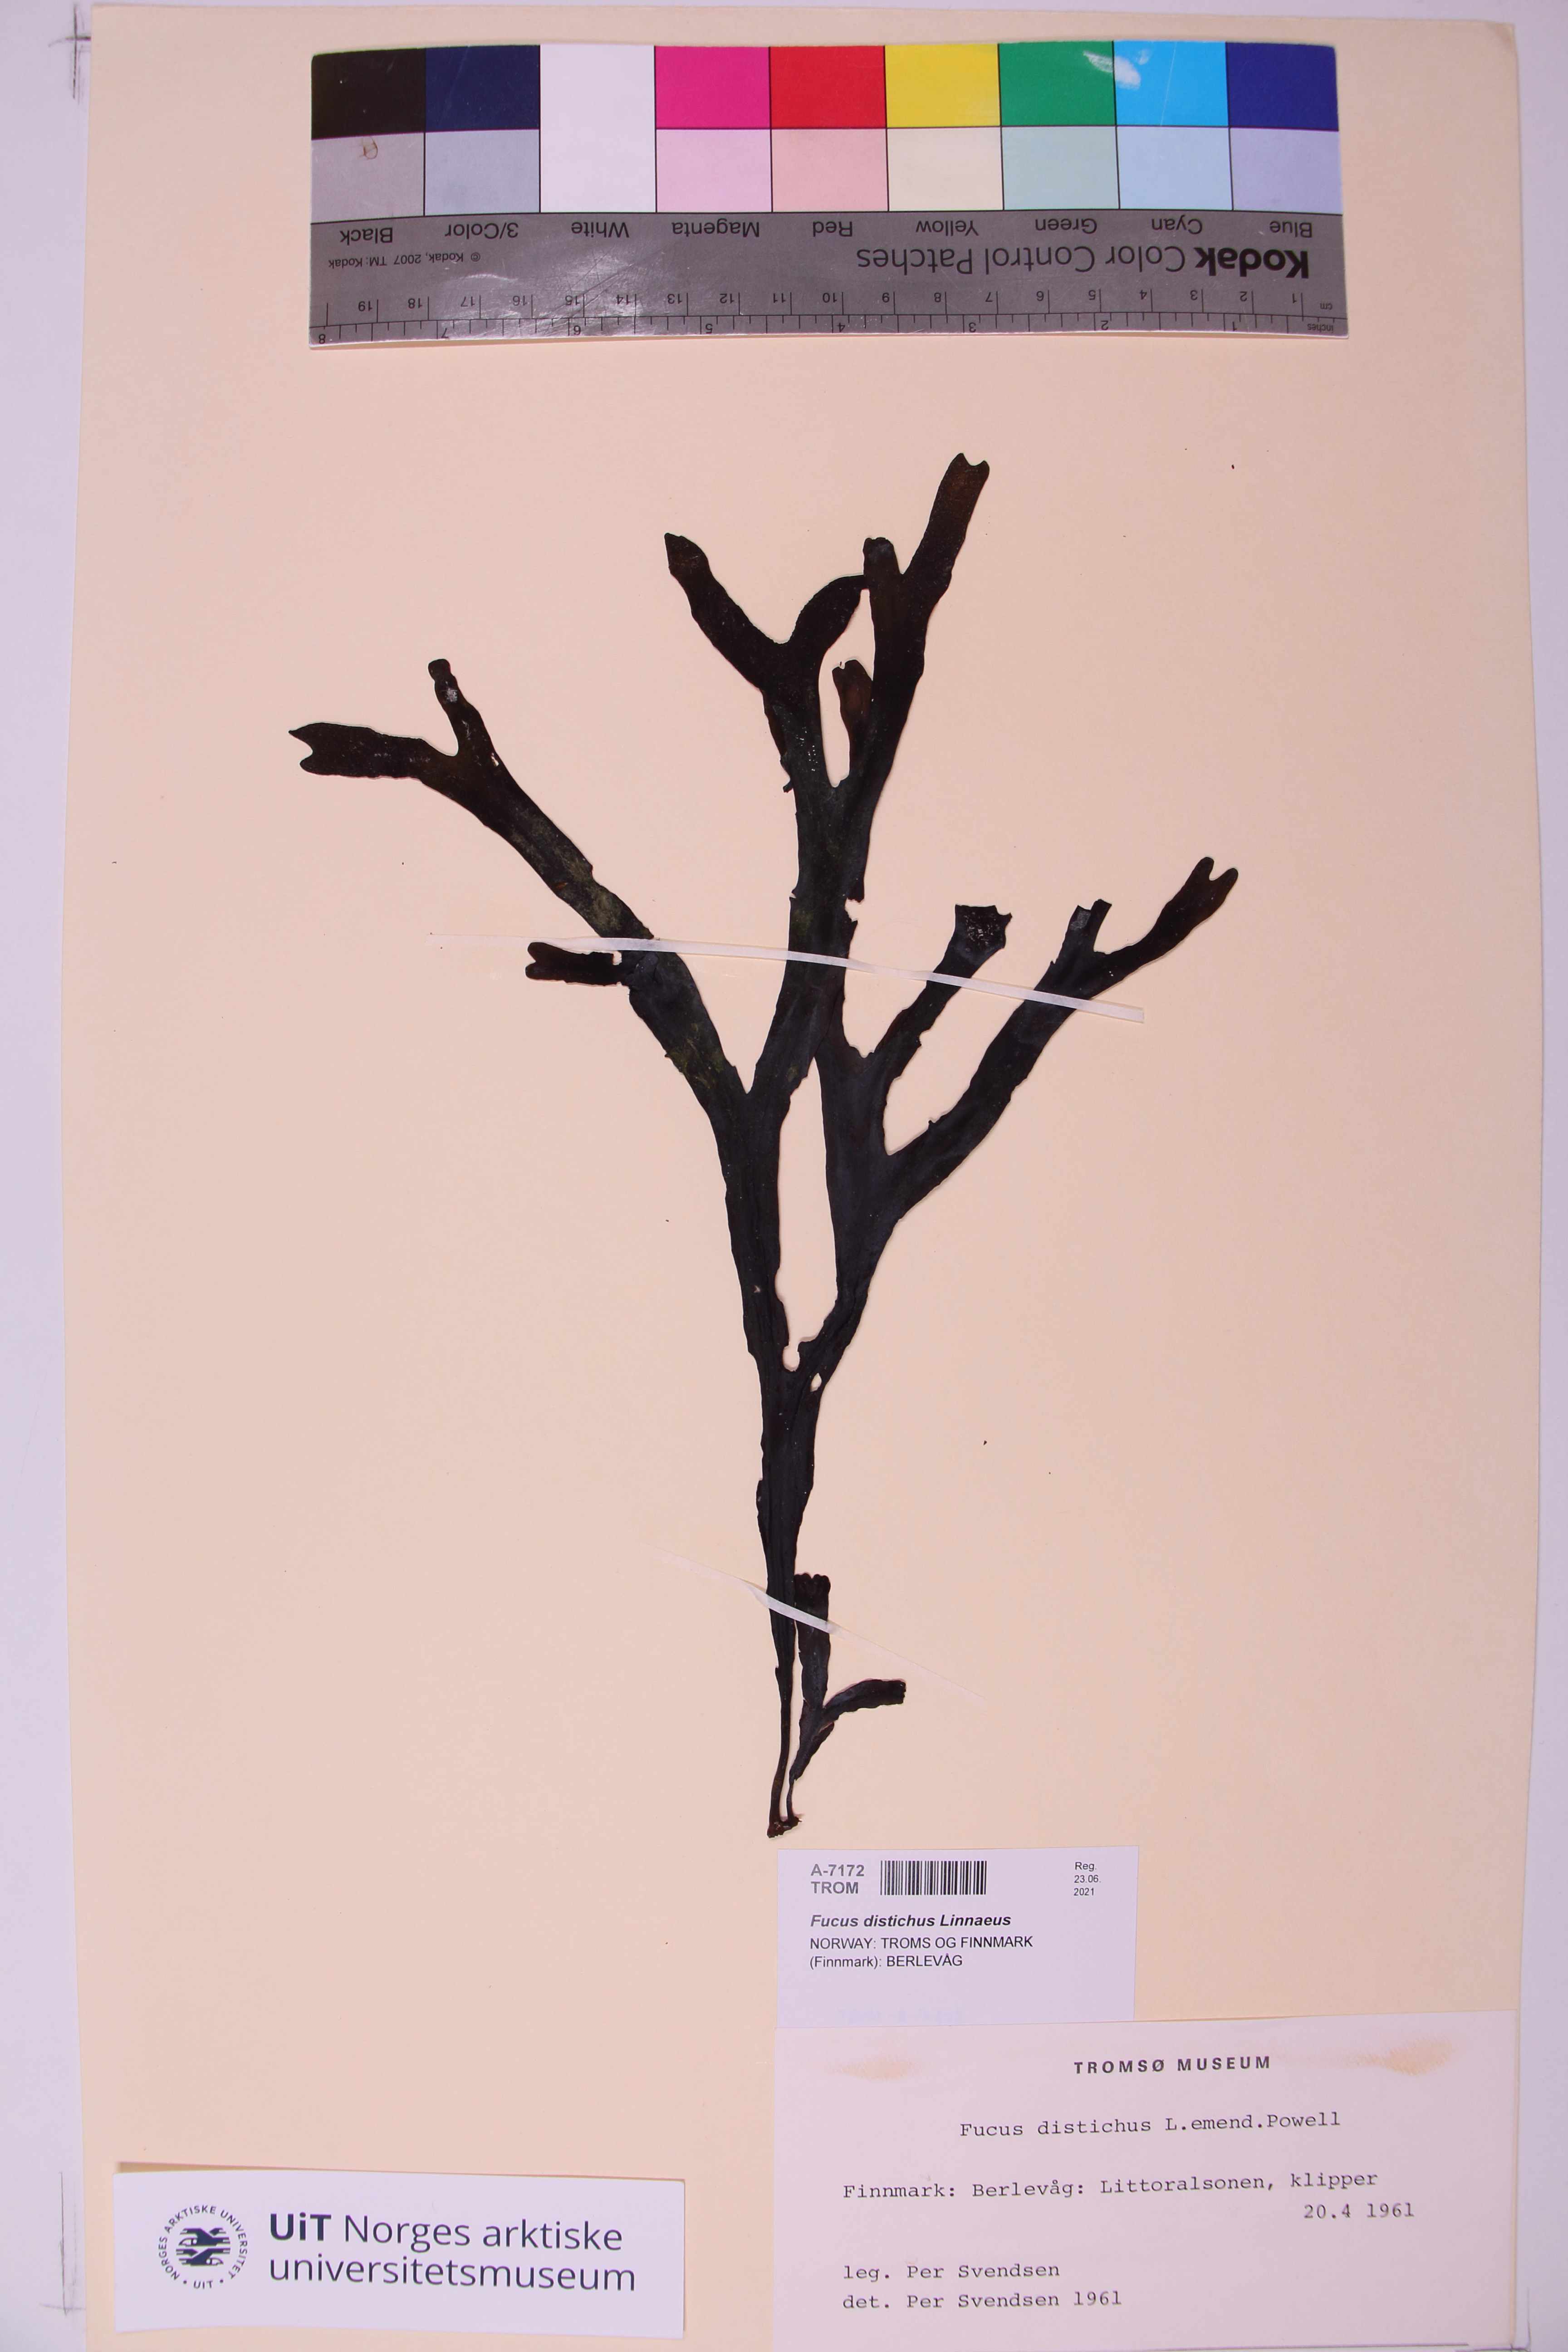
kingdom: Chromista
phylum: Ochrophyta
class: Phaeophyceae
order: Fucales
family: Fucaceae
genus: Fucus
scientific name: Fucus distichus
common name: Rockweed
